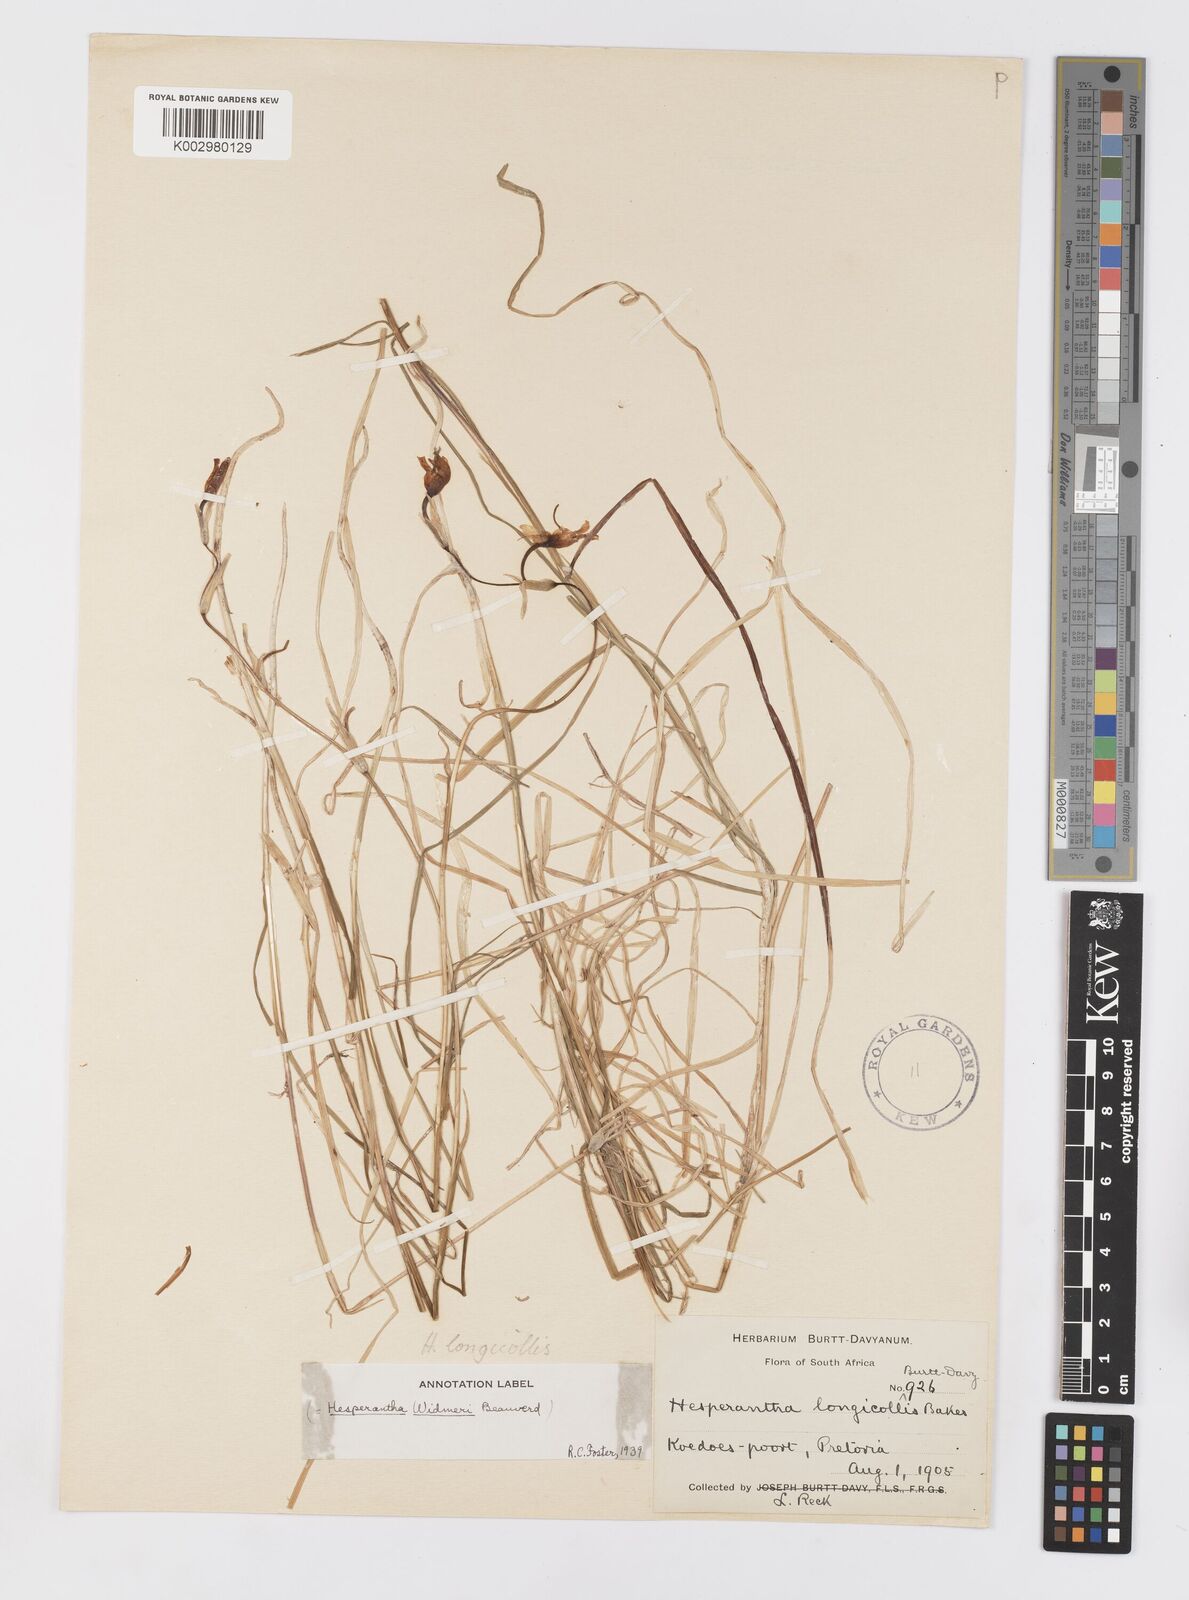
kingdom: Plantae
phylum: Tracheophyta
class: Liliopsida
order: Asparagales
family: Iridaceae
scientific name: Iridaceae
